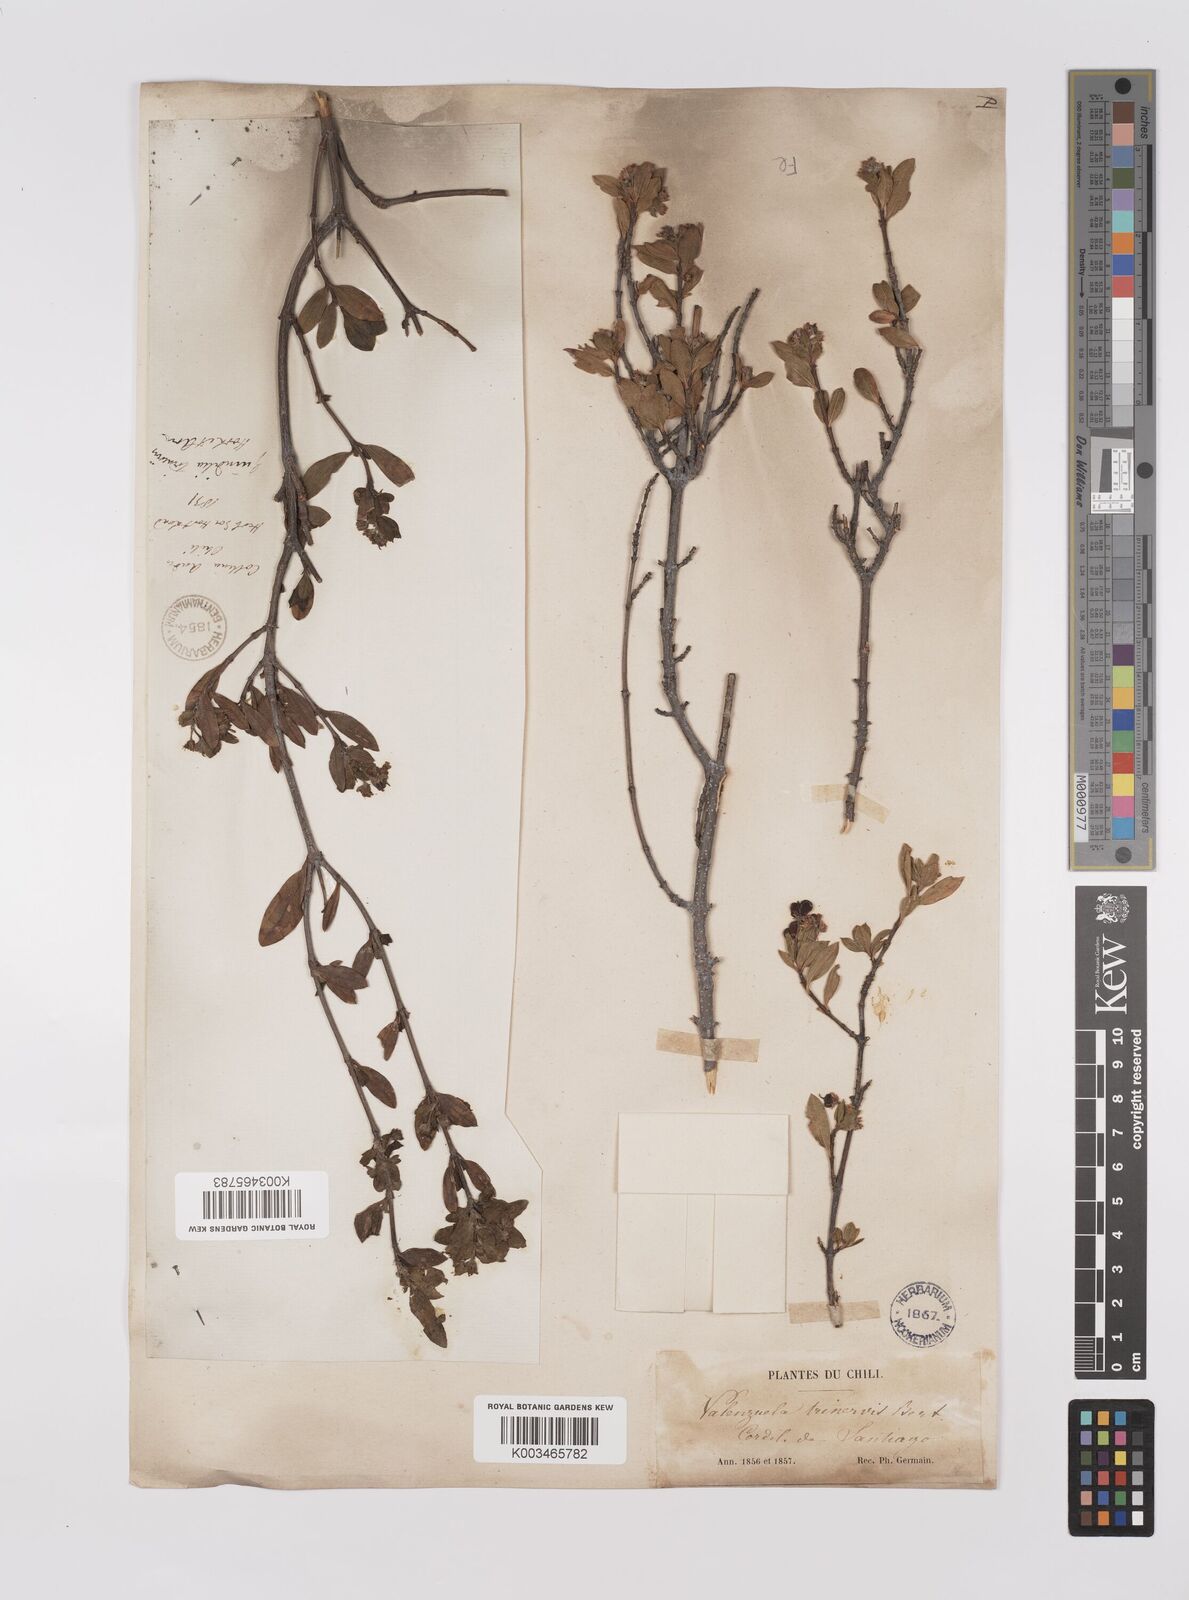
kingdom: Plantae
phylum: Tracheophyta
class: Magnoliopsida
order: Sapindales
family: Sapindaceae
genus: Guindilia
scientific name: Guindilia trinervis
